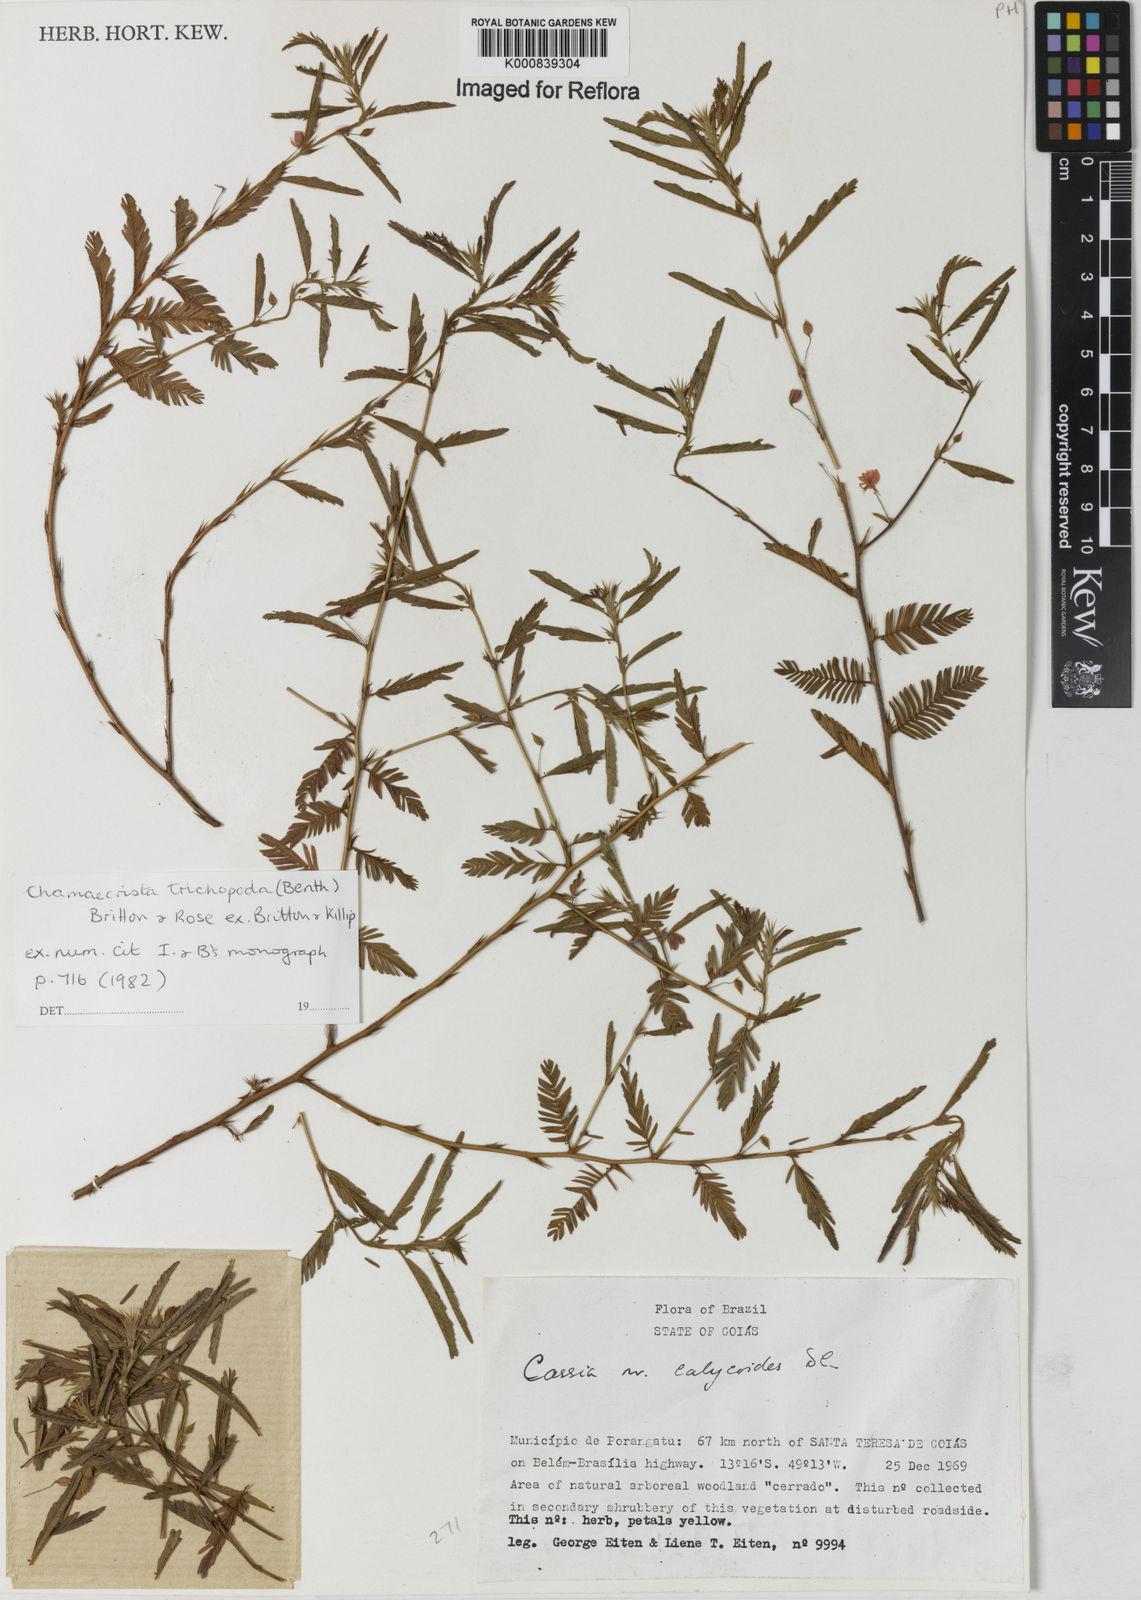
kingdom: Plantae
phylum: Tracheophyta
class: Magnoliopsida
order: Fabales
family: Fabaceae
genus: Chamaecrista
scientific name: Chamaecrista trichopoda
